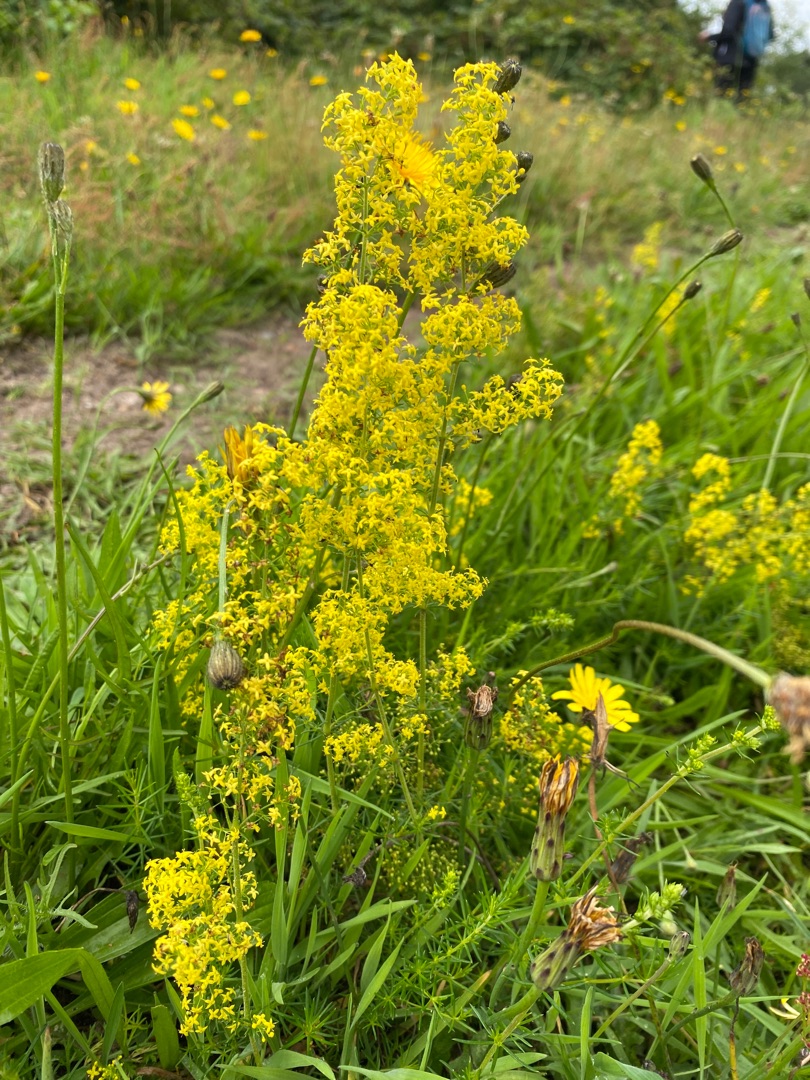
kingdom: Plantae
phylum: Tracheophyta
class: Magnoliopsida
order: Gentianales
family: Rubiaceae
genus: Galium
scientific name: Galium verum
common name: Gul snerre
